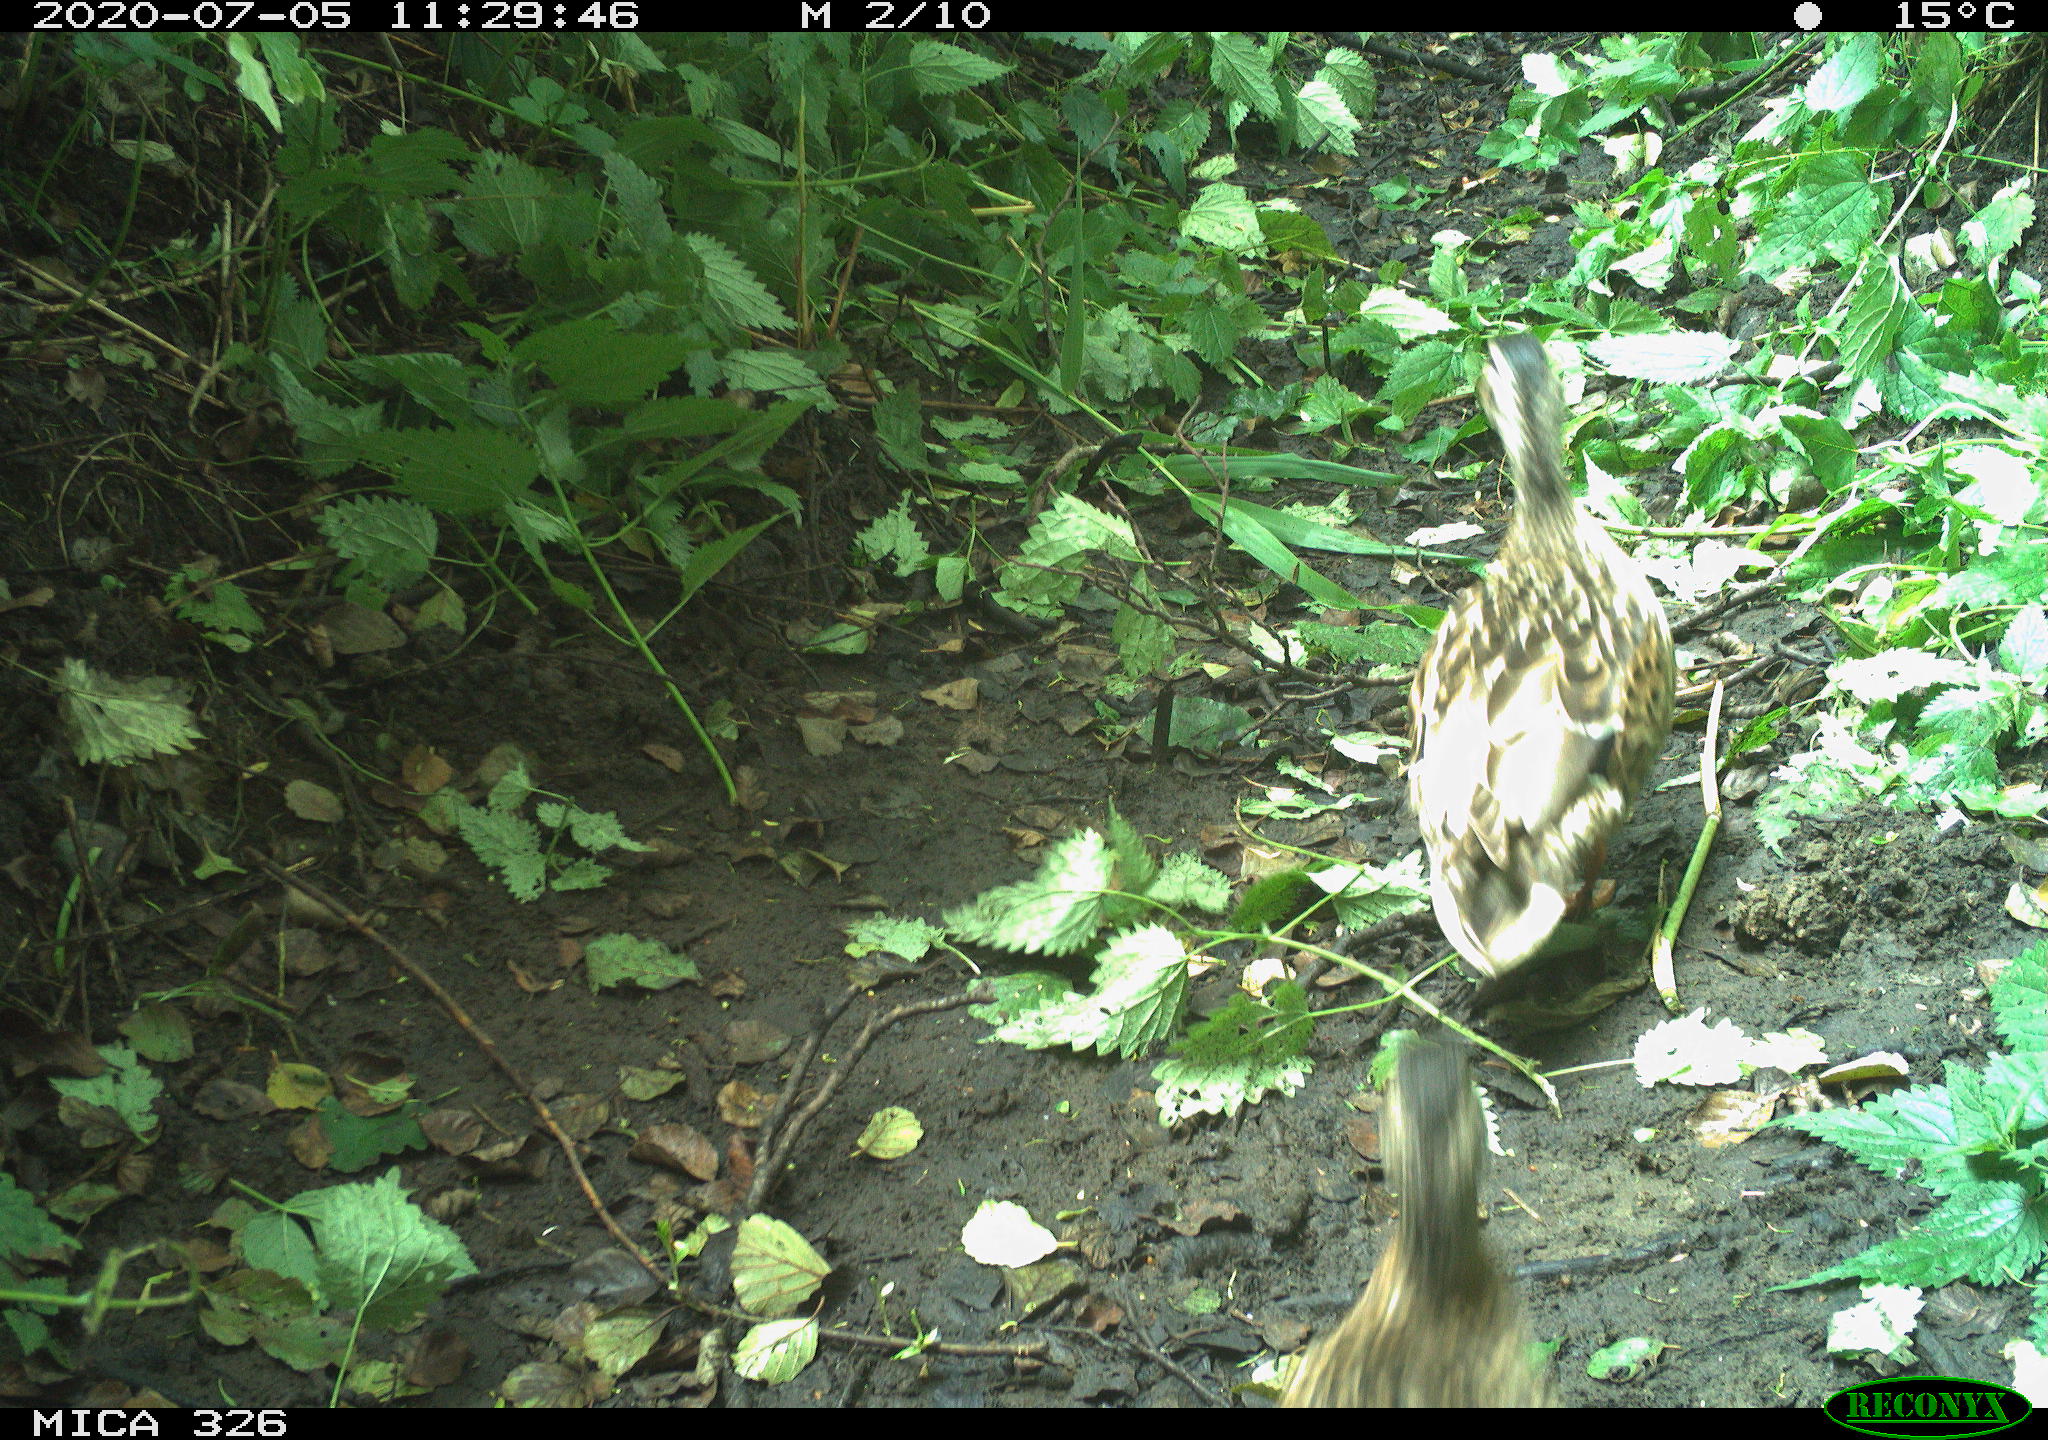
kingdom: Animalia
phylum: Chordata
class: Aves
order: Anseriformes
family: Anatidae
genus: Anas
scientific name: Anas platyrhynchos
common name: Mallard
